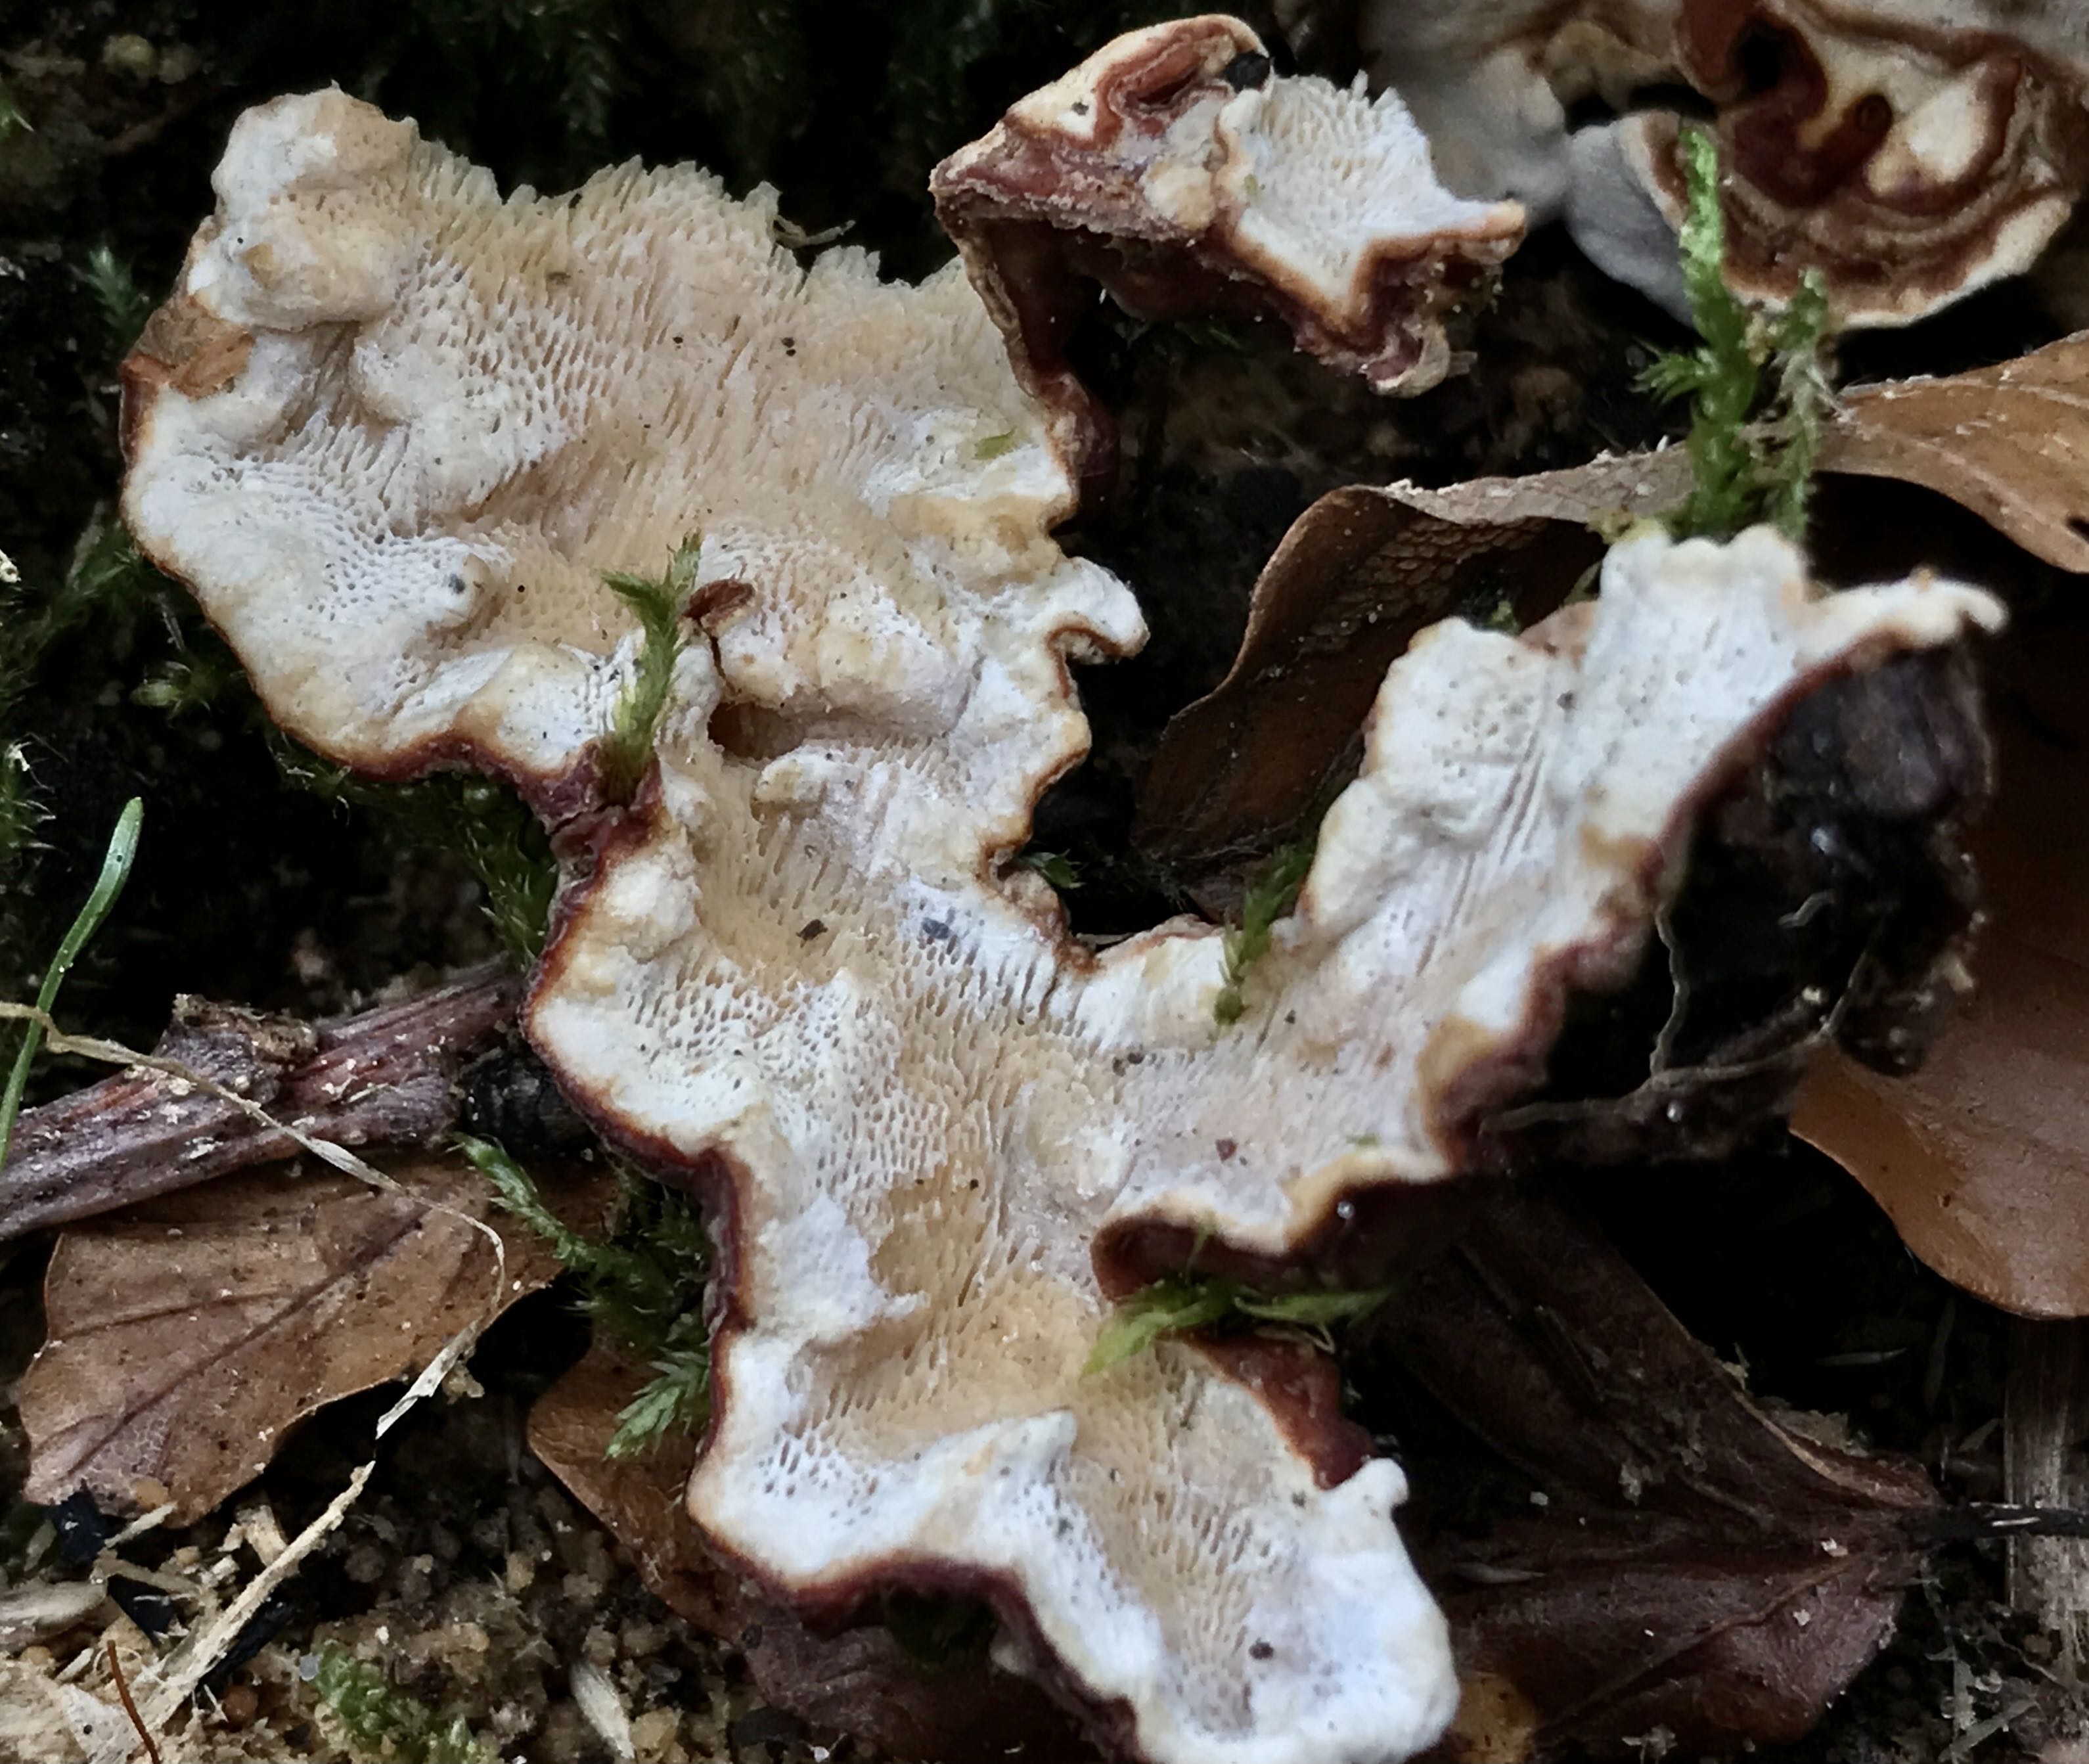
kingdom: Fungi
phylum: Basidiomycota
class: Agaricomycetes
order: Russulales
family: Bondarzewiaceae
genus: Heterobasidion
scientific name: Heterobasidion annosum
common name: almindelig rodfordærver
